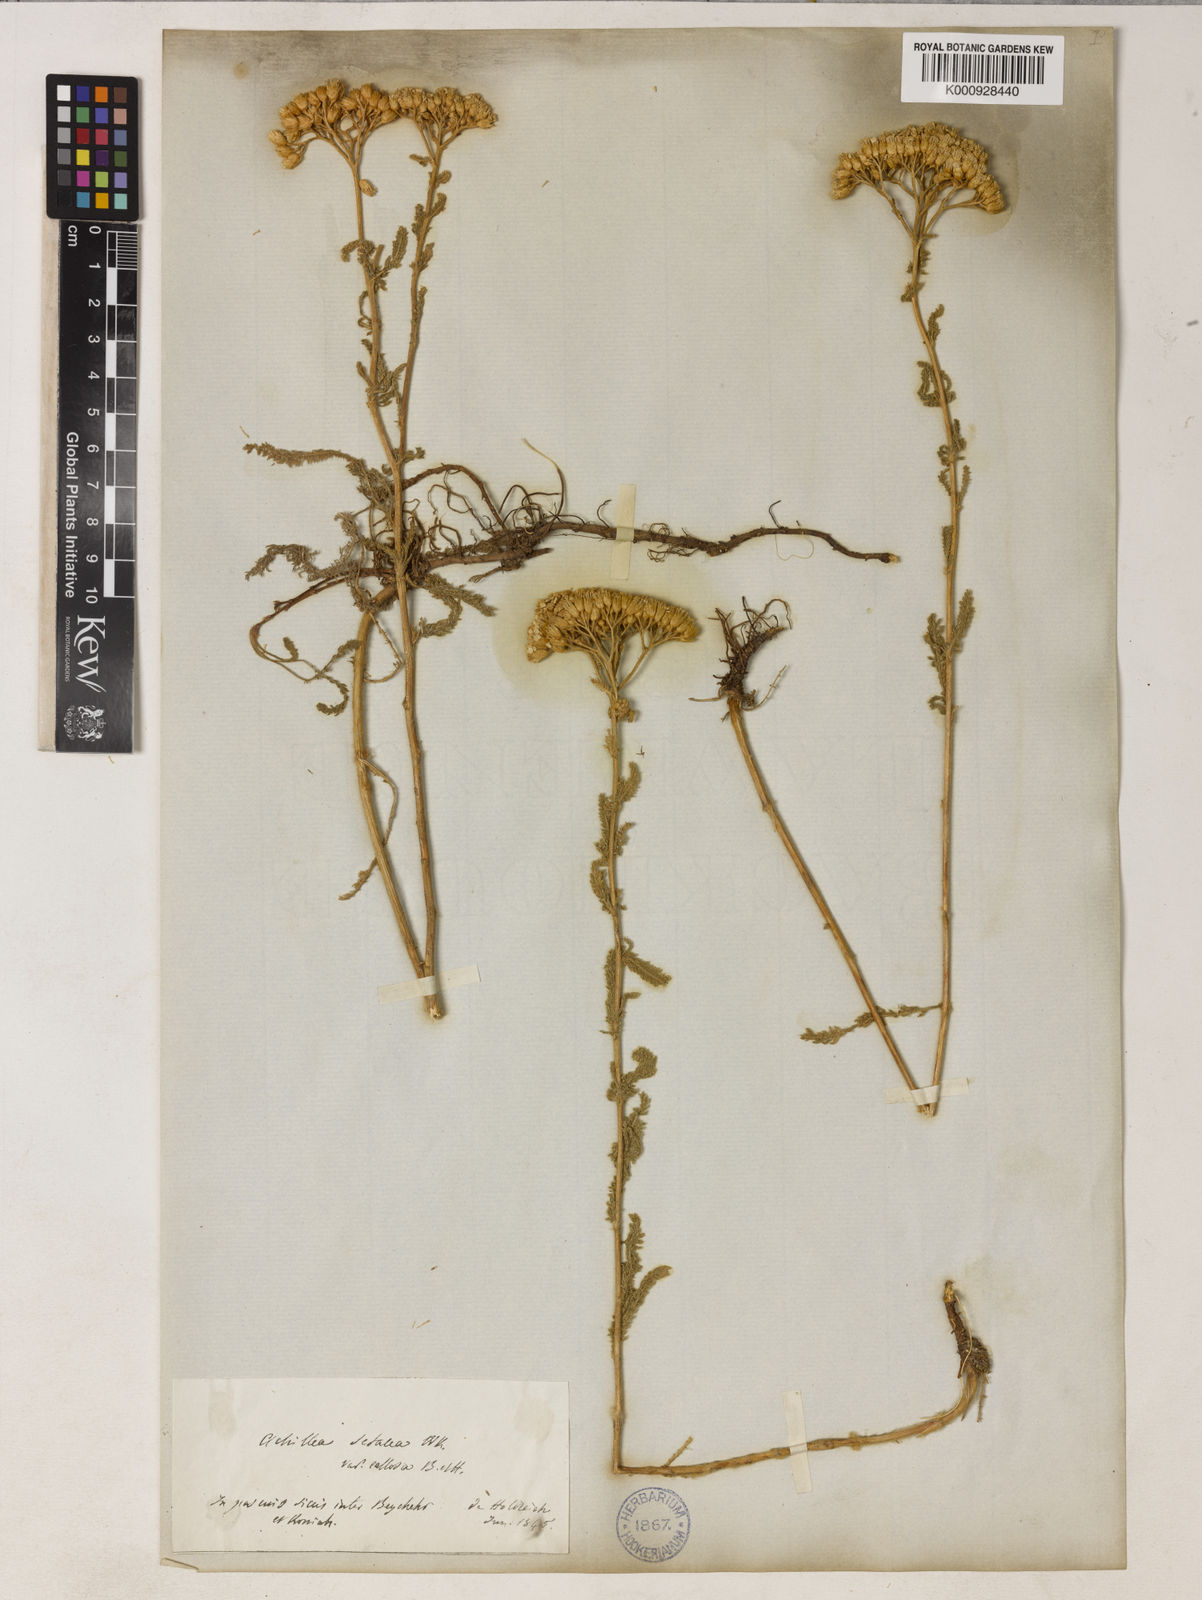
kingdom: Plantae
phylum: Tracheophyta
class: Magnoliopsida
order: Asterales
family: Asteraceae
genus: Achillea
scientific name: Achillea setacea
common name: Bristly yarrow
